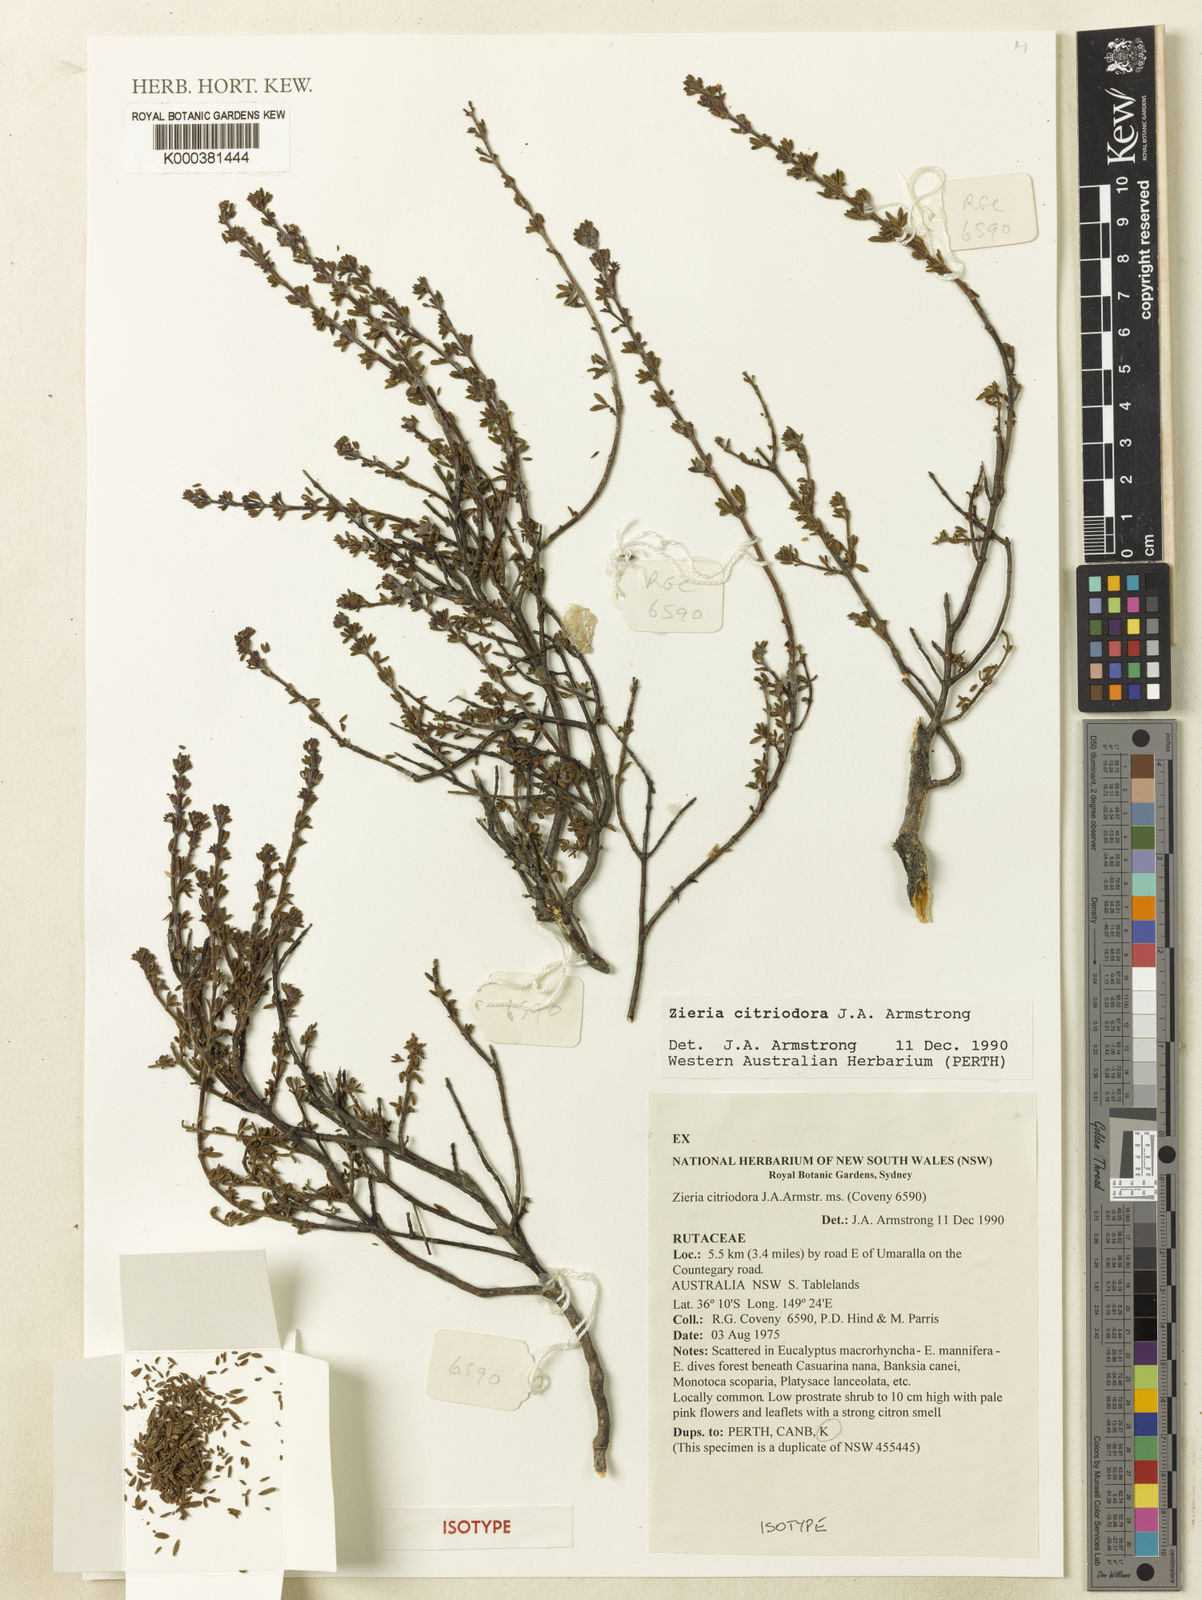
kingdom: Plantae
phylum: Tracheophyta
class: Magnoliopsida
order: Sapindales
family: Rutaceae
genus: Zieria
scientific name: Zieria citriodora
